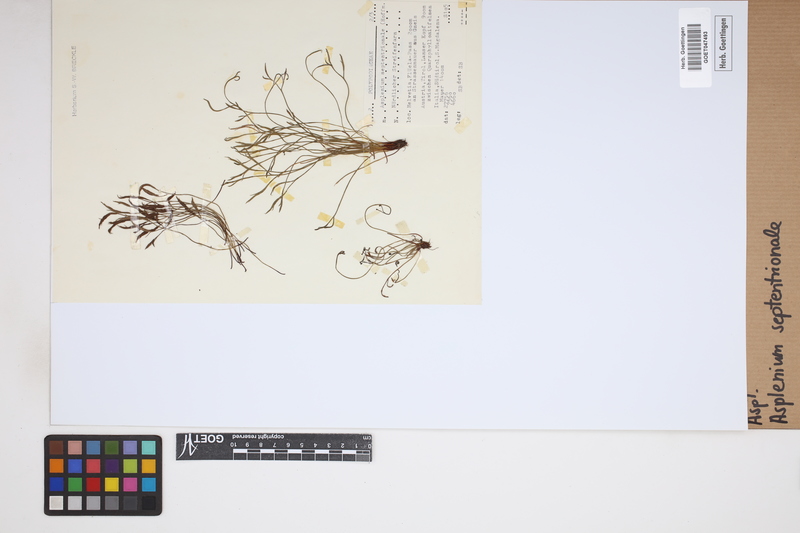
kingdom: Plantae
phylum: Tracheophyta
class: Polypodiopsida
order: Polypodiales
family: Aspleniaceae
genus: Asplenium
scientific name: Asplenium septentrionale
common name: Forked spleenwort
